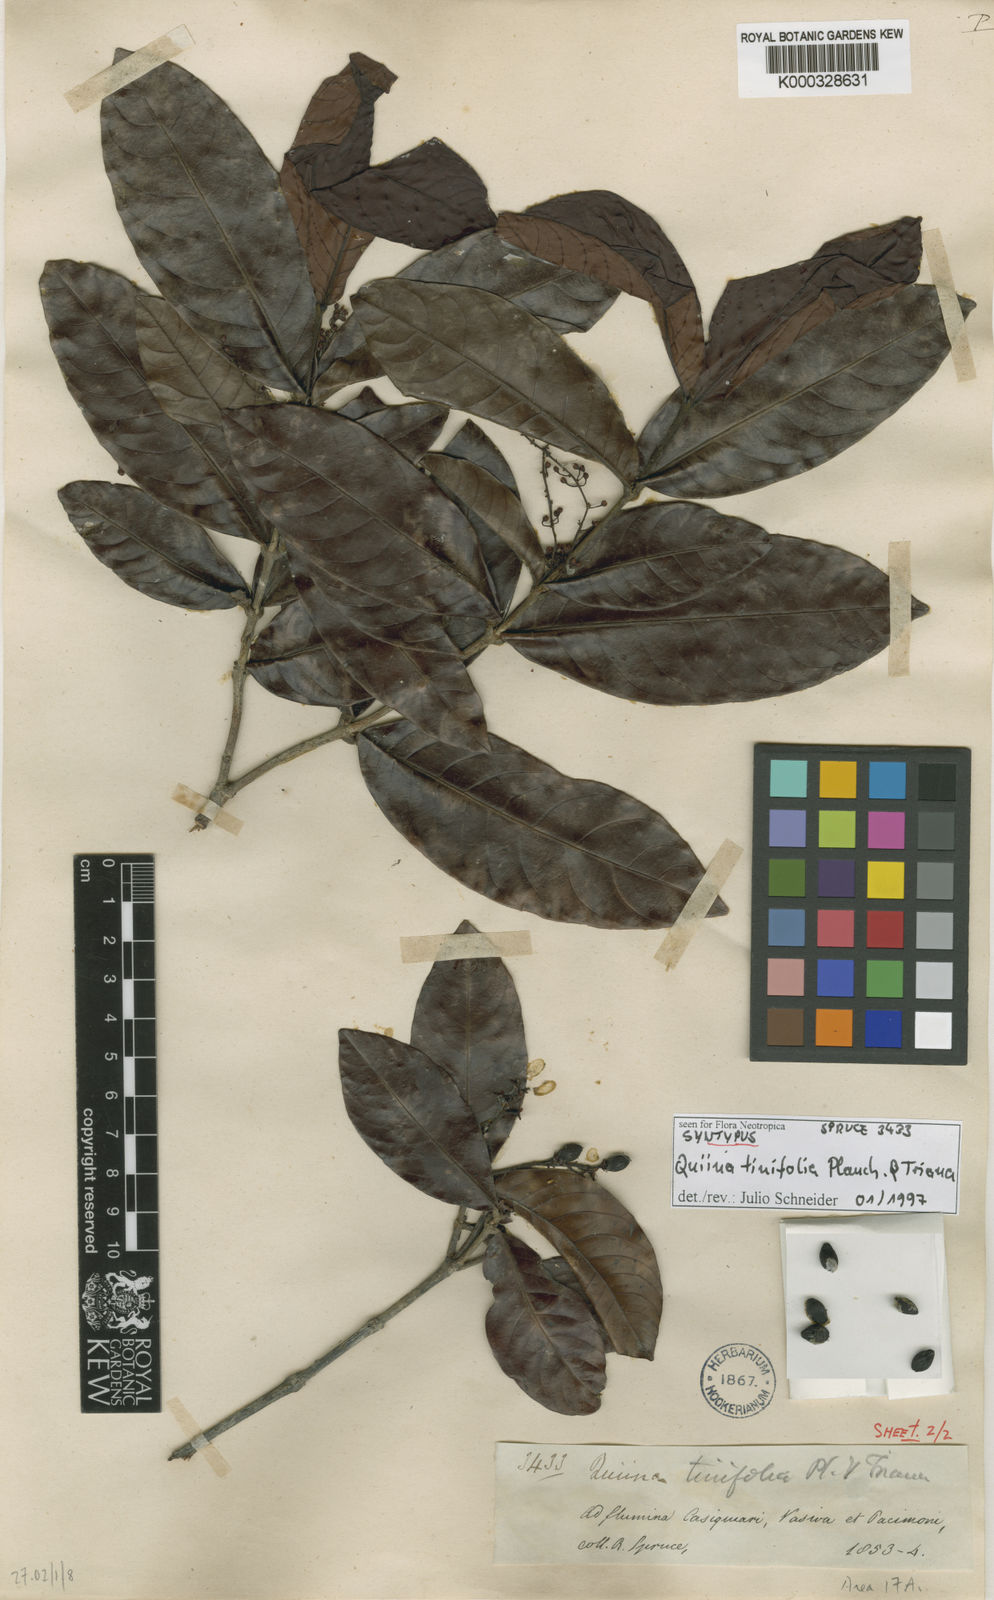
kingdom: Plantae
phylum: Tracheophyta
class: Magnoliopsida
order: Malpighiales
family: Quiinaceae
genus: Quiina
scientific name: Quiina tinifolia
